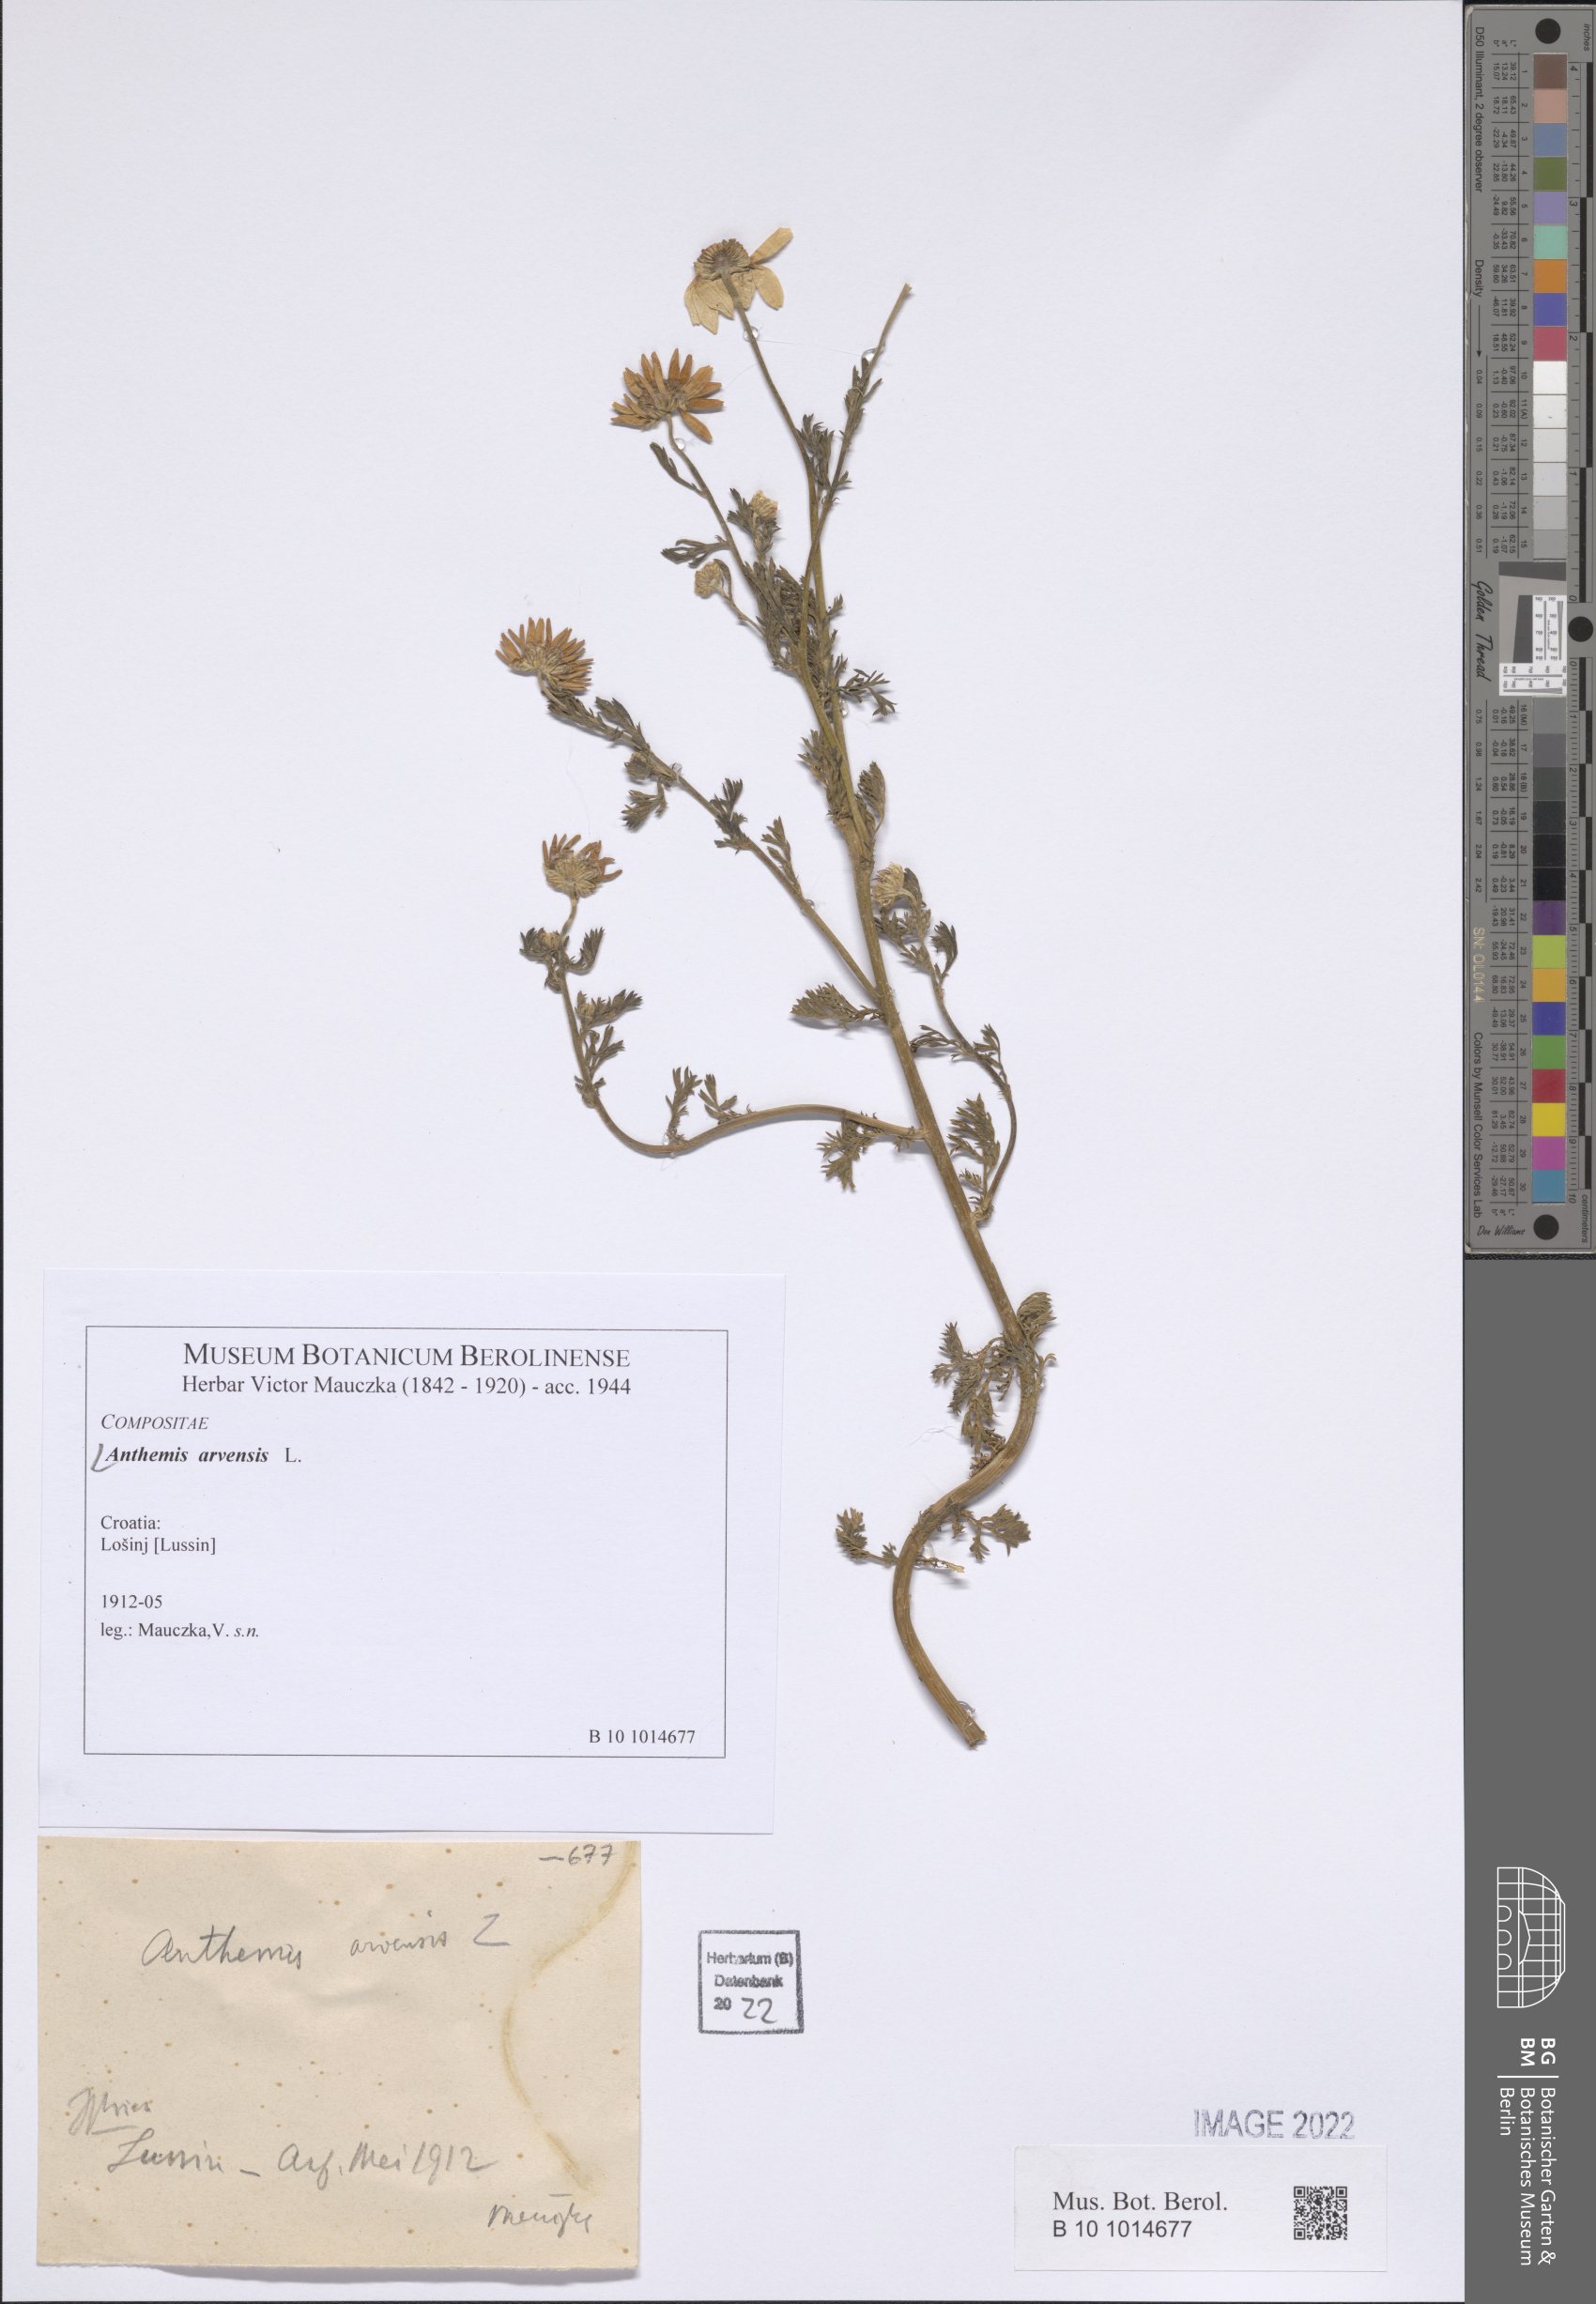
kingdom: Plantae
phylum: Tracheophyta
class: Magnoliopsida
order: Asterales
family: Asteraceae
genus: Anthemis
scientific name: Anthemis arvensis
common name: Corn chamomile
